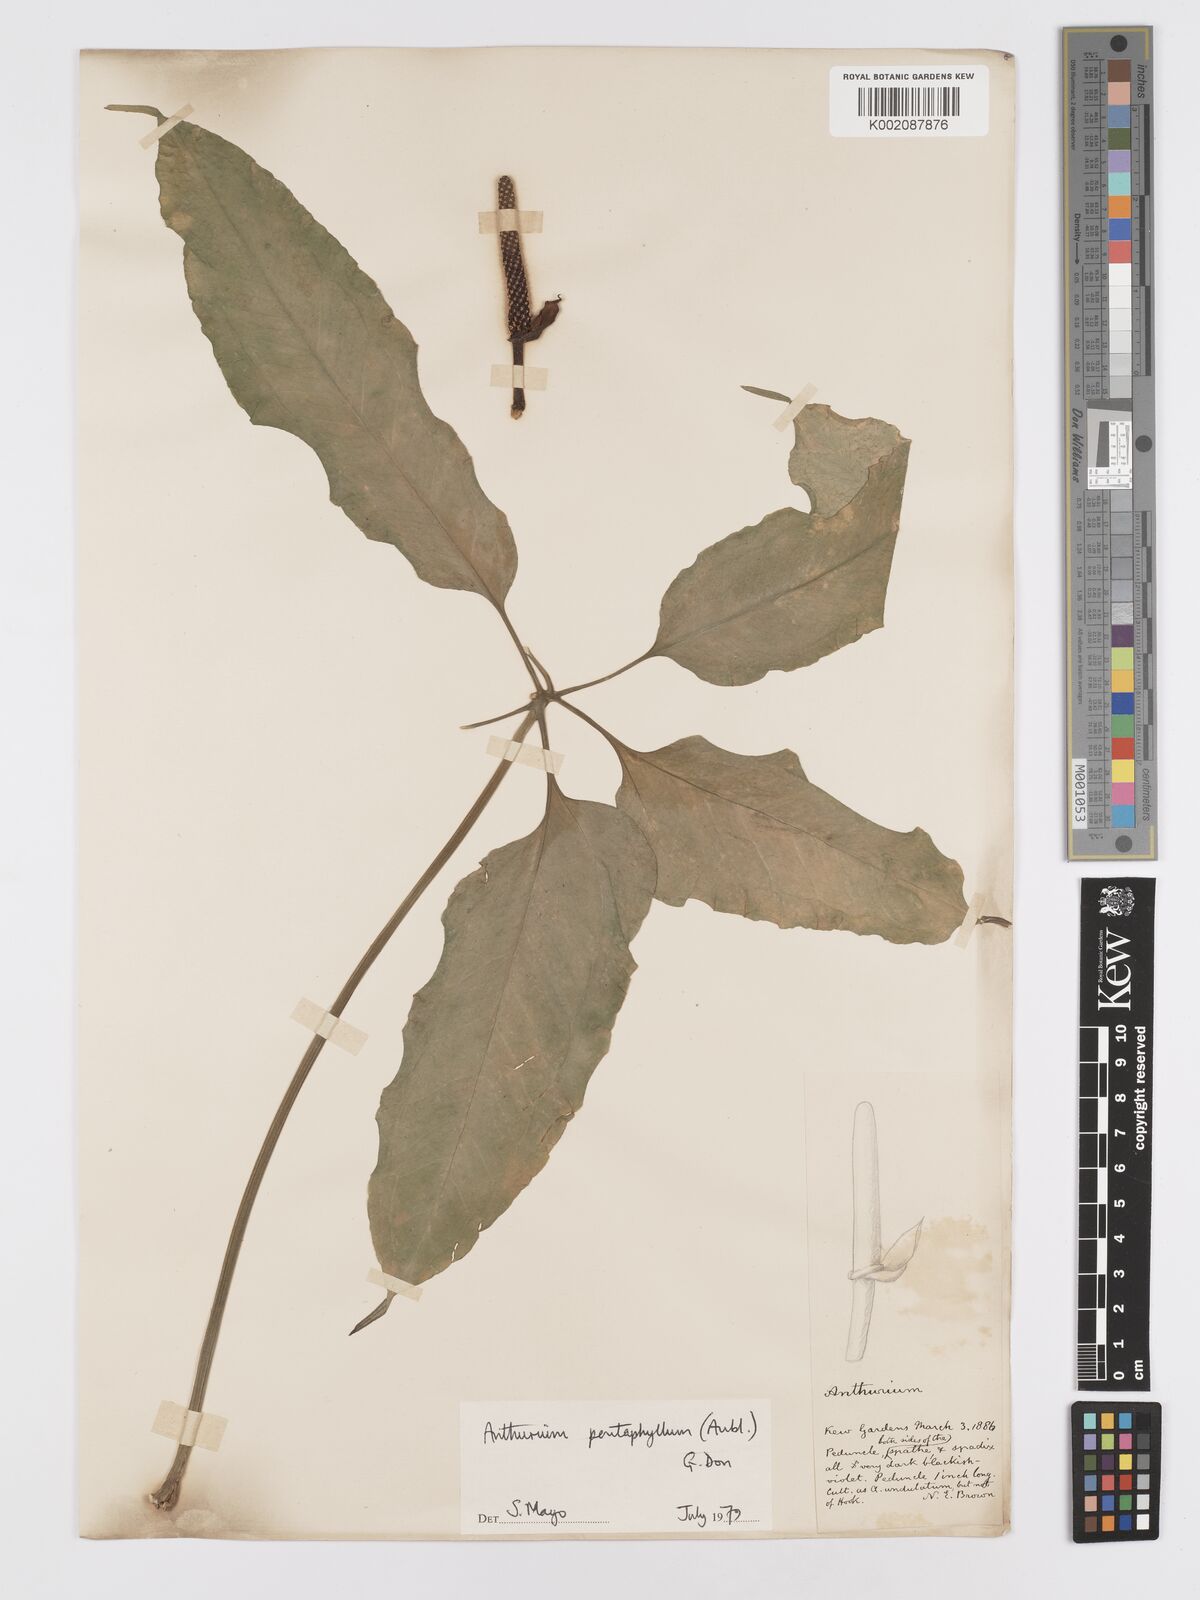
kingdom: Plantae
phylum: Tracheophyta
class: Liliopsida
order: Alismatales
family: Araceae
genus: Anthurium
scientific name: Anthurium pentaphyllum
